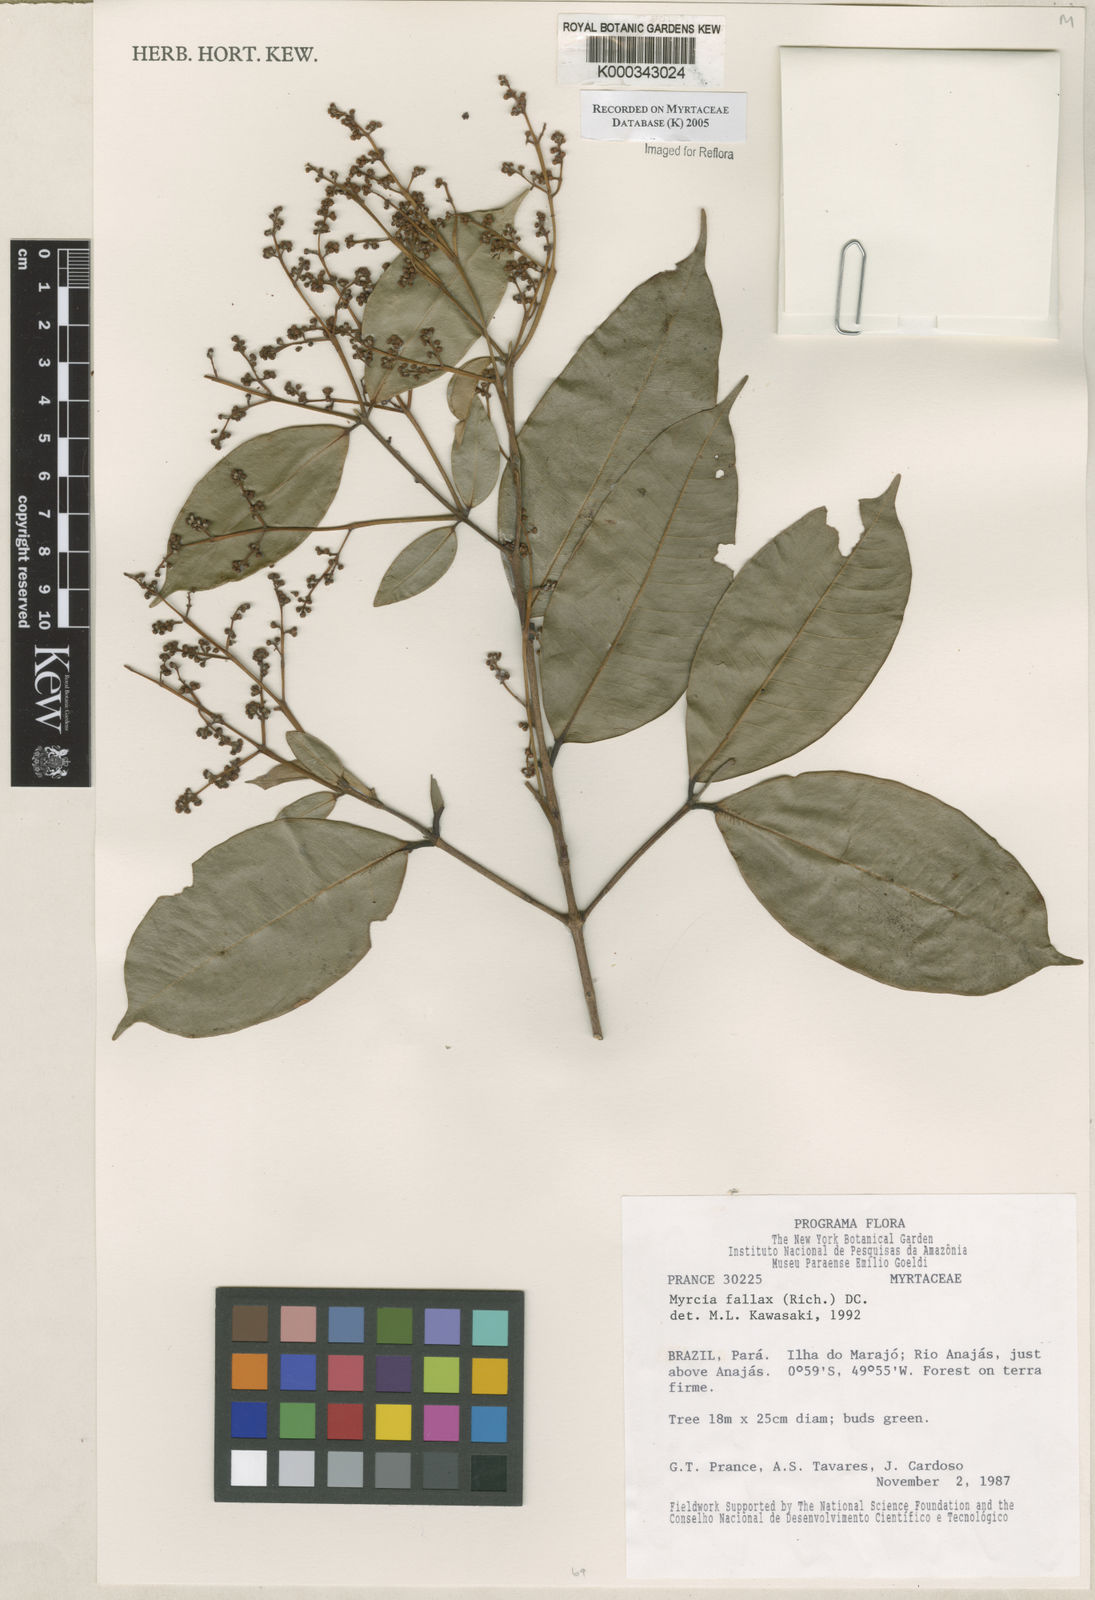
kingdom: Plantae
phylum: Tracheophyta
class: Magnoliopsida
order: Myrtales
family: Myrtaceae
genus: Myrcia
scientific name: Myrcia splendens
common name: Surinam cherry
